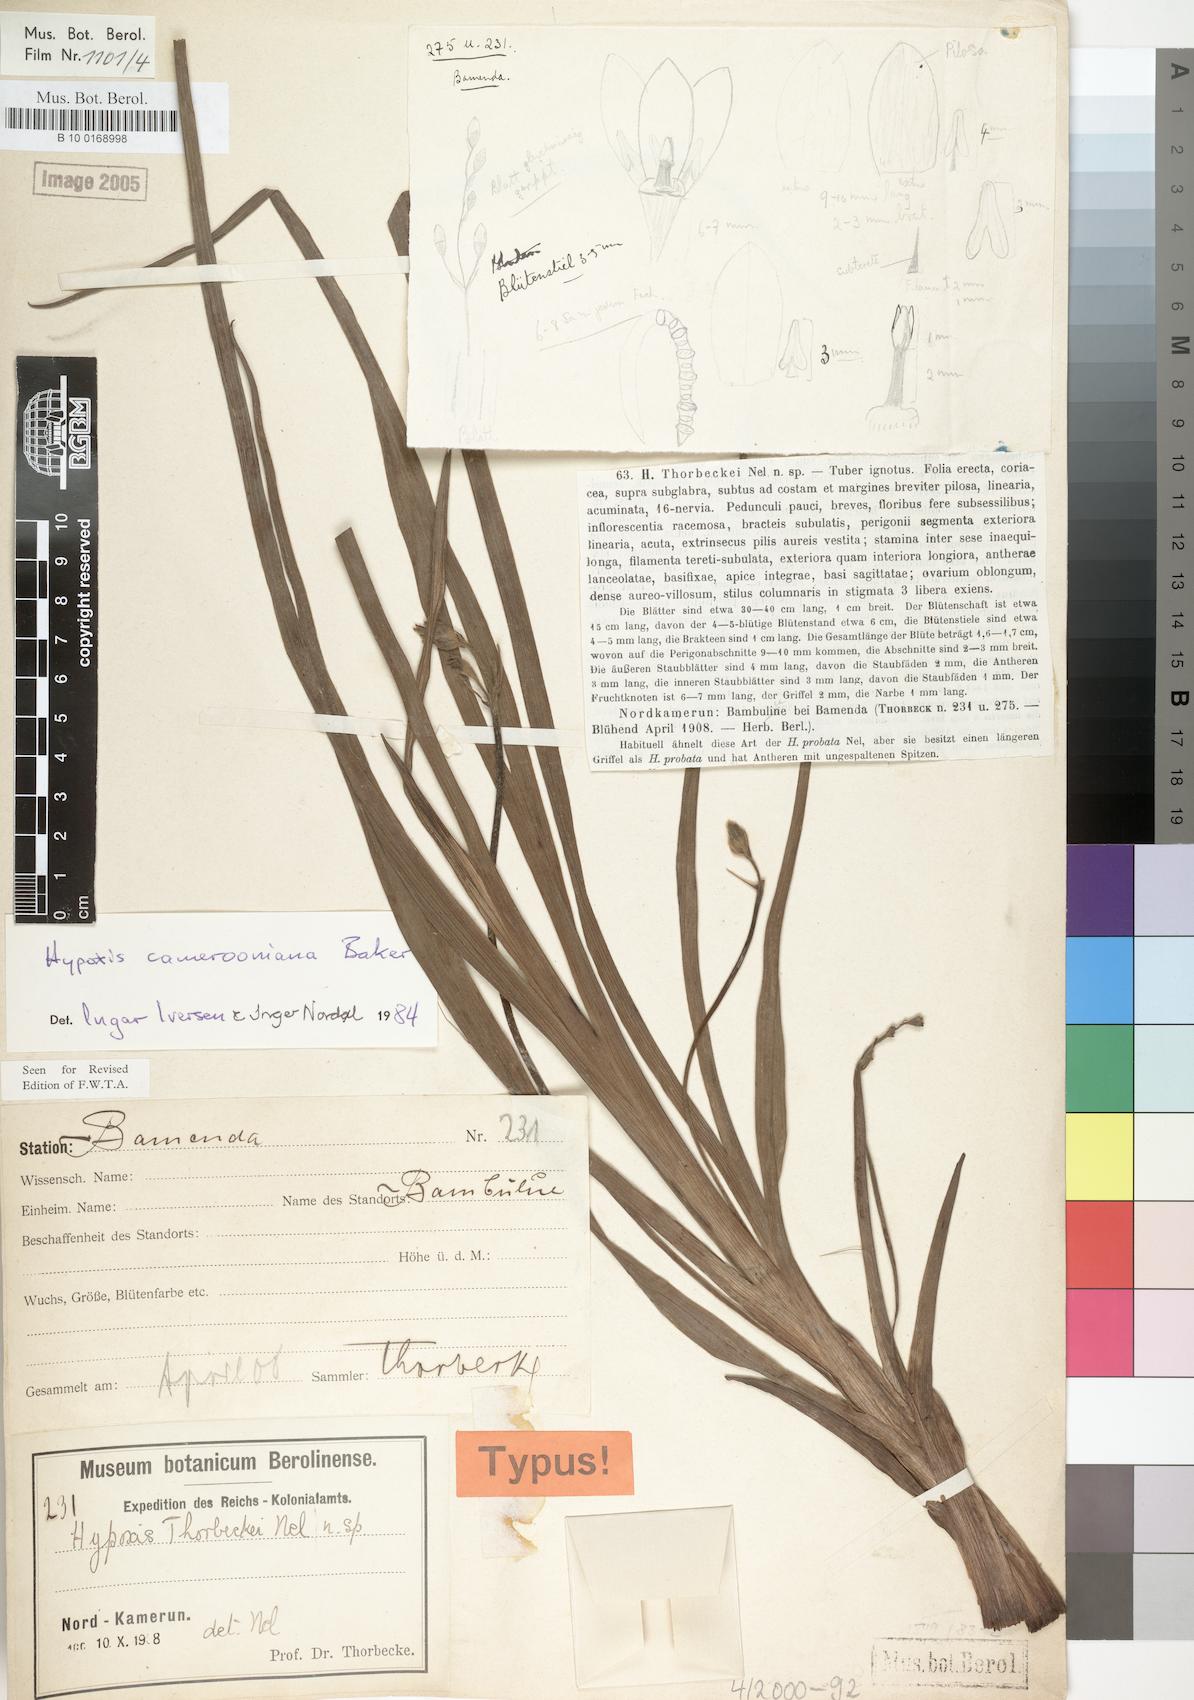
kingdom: Plantae
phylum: Tracheophyta
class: Liliopsida
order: Asparagales
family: Hypoxidaceae
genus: Hypoxis
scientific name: Hypoxis camerooniana
